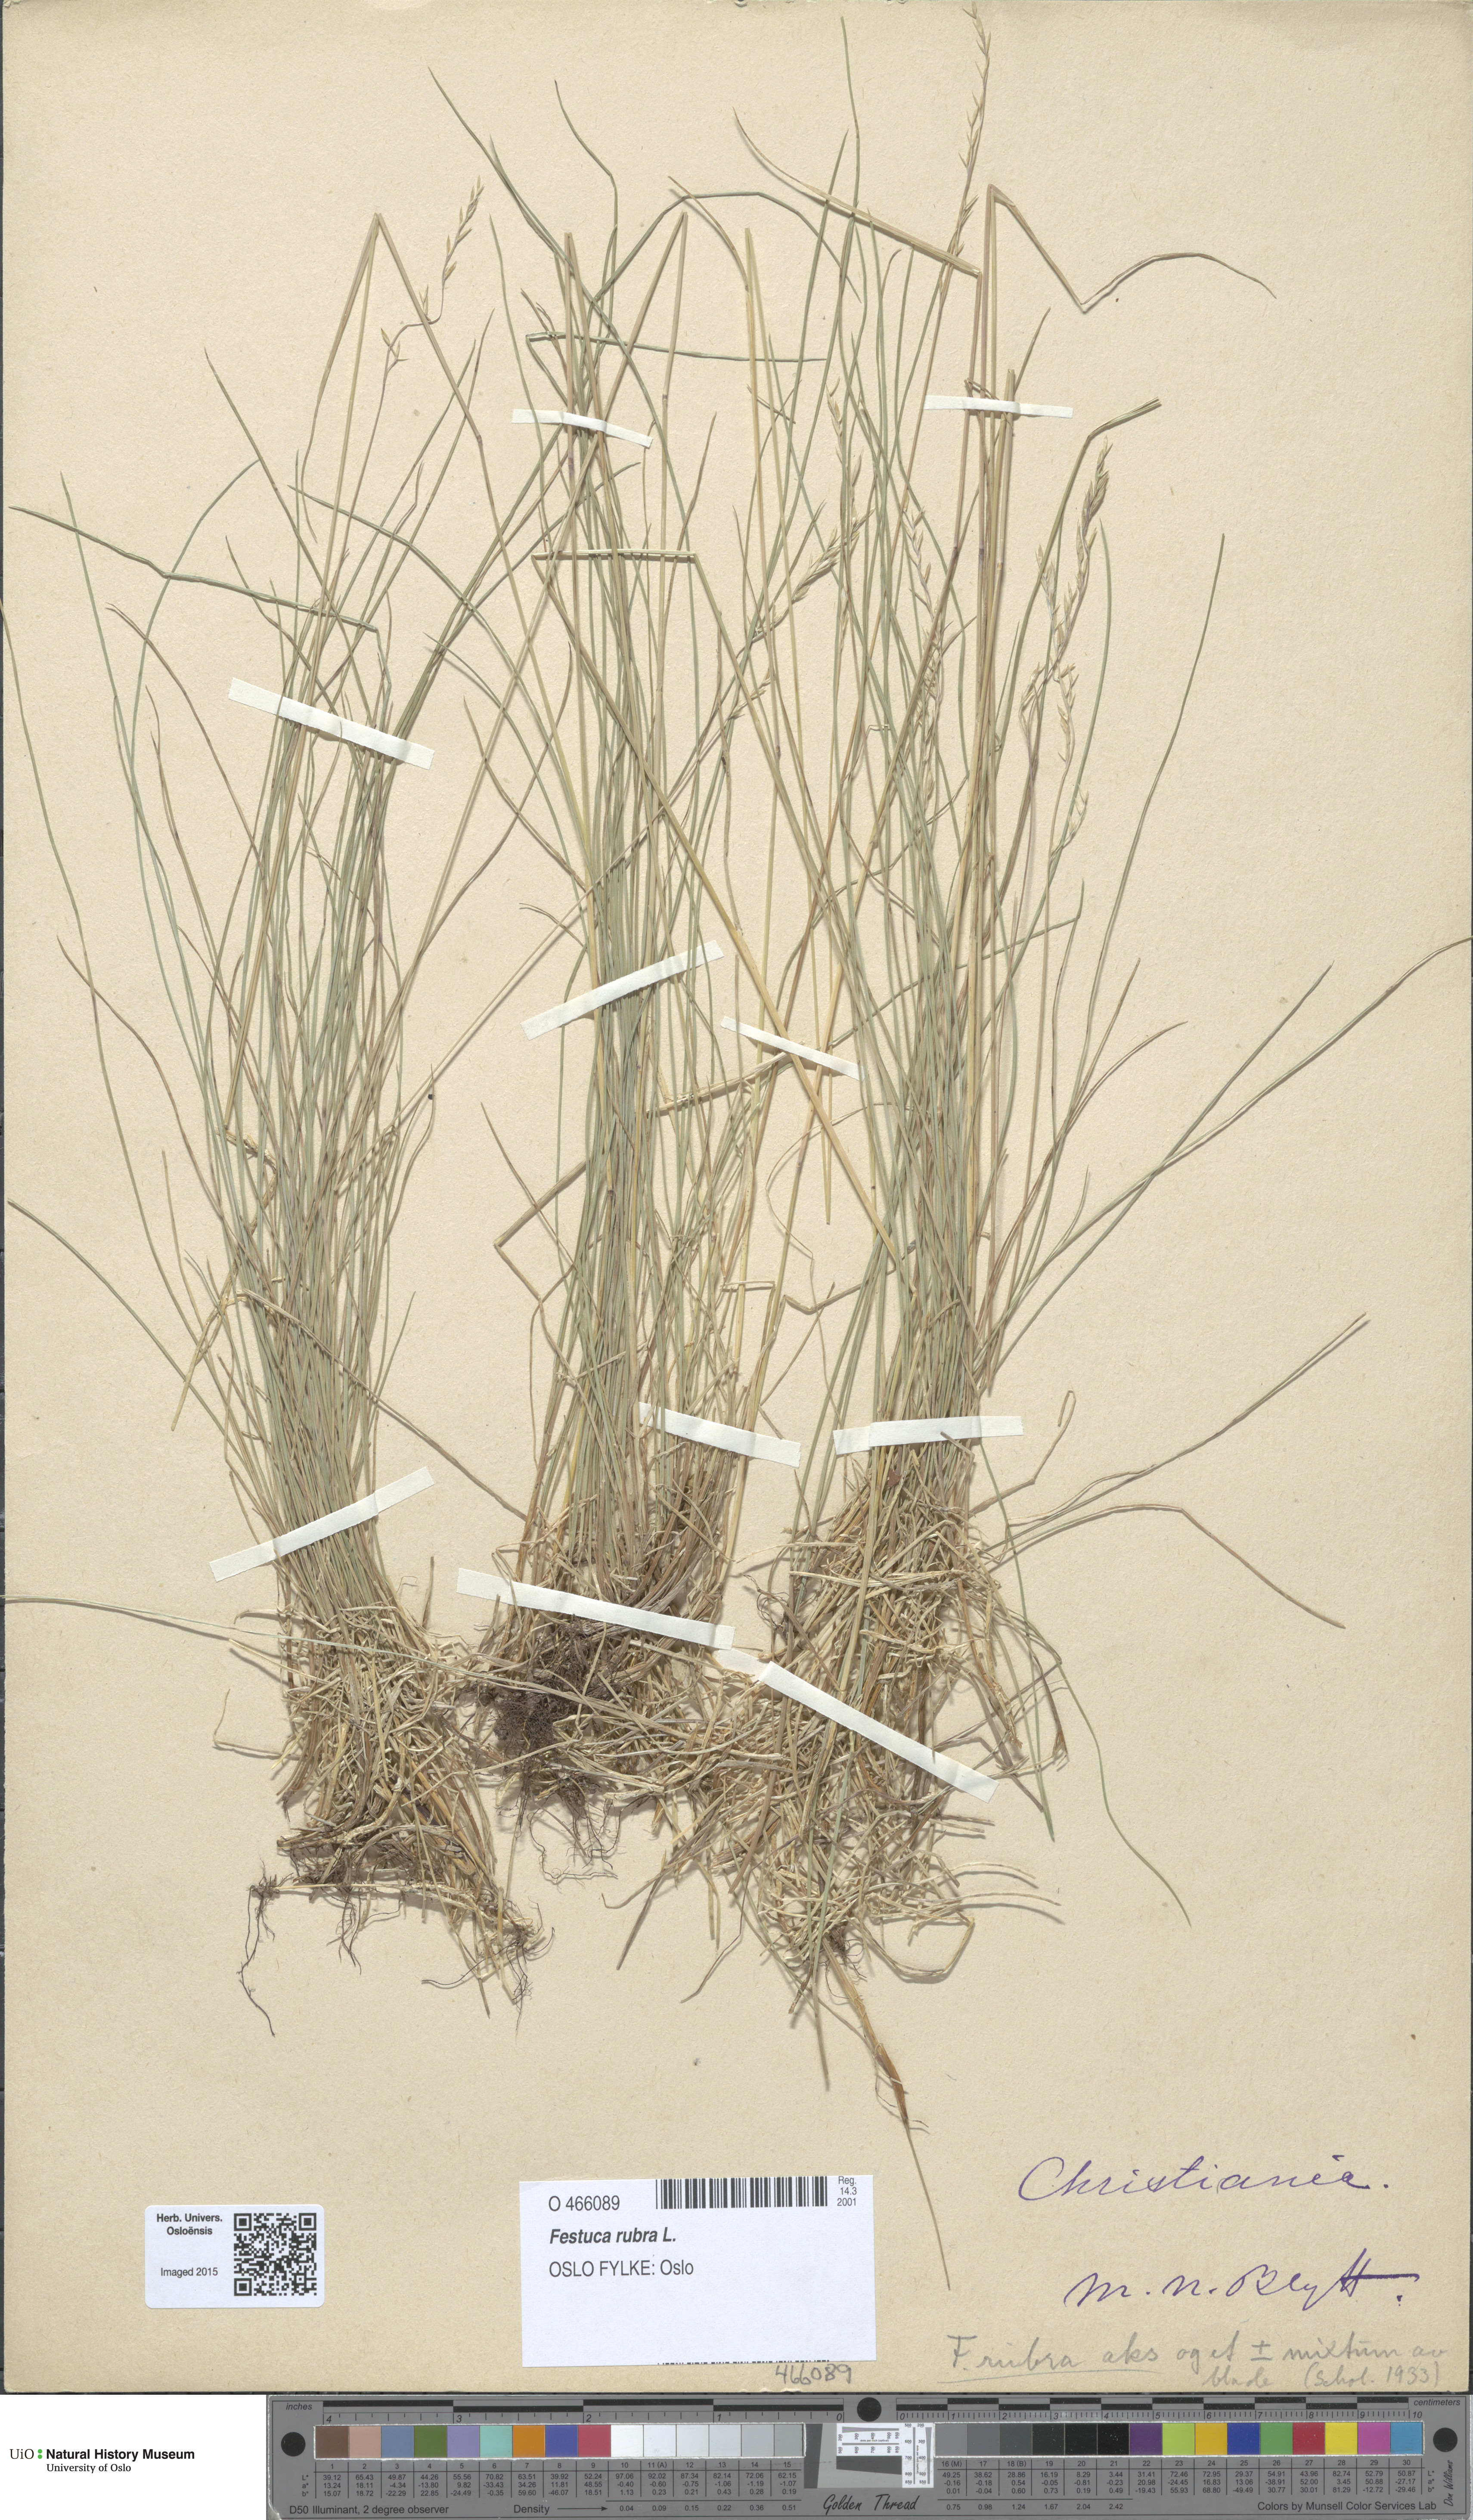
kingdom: Plantae
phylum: Tracheophyta
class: Liliopsida
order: Poales
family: Poaceae
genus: Festuca
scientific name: Festuca rubra
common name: Red fescue
